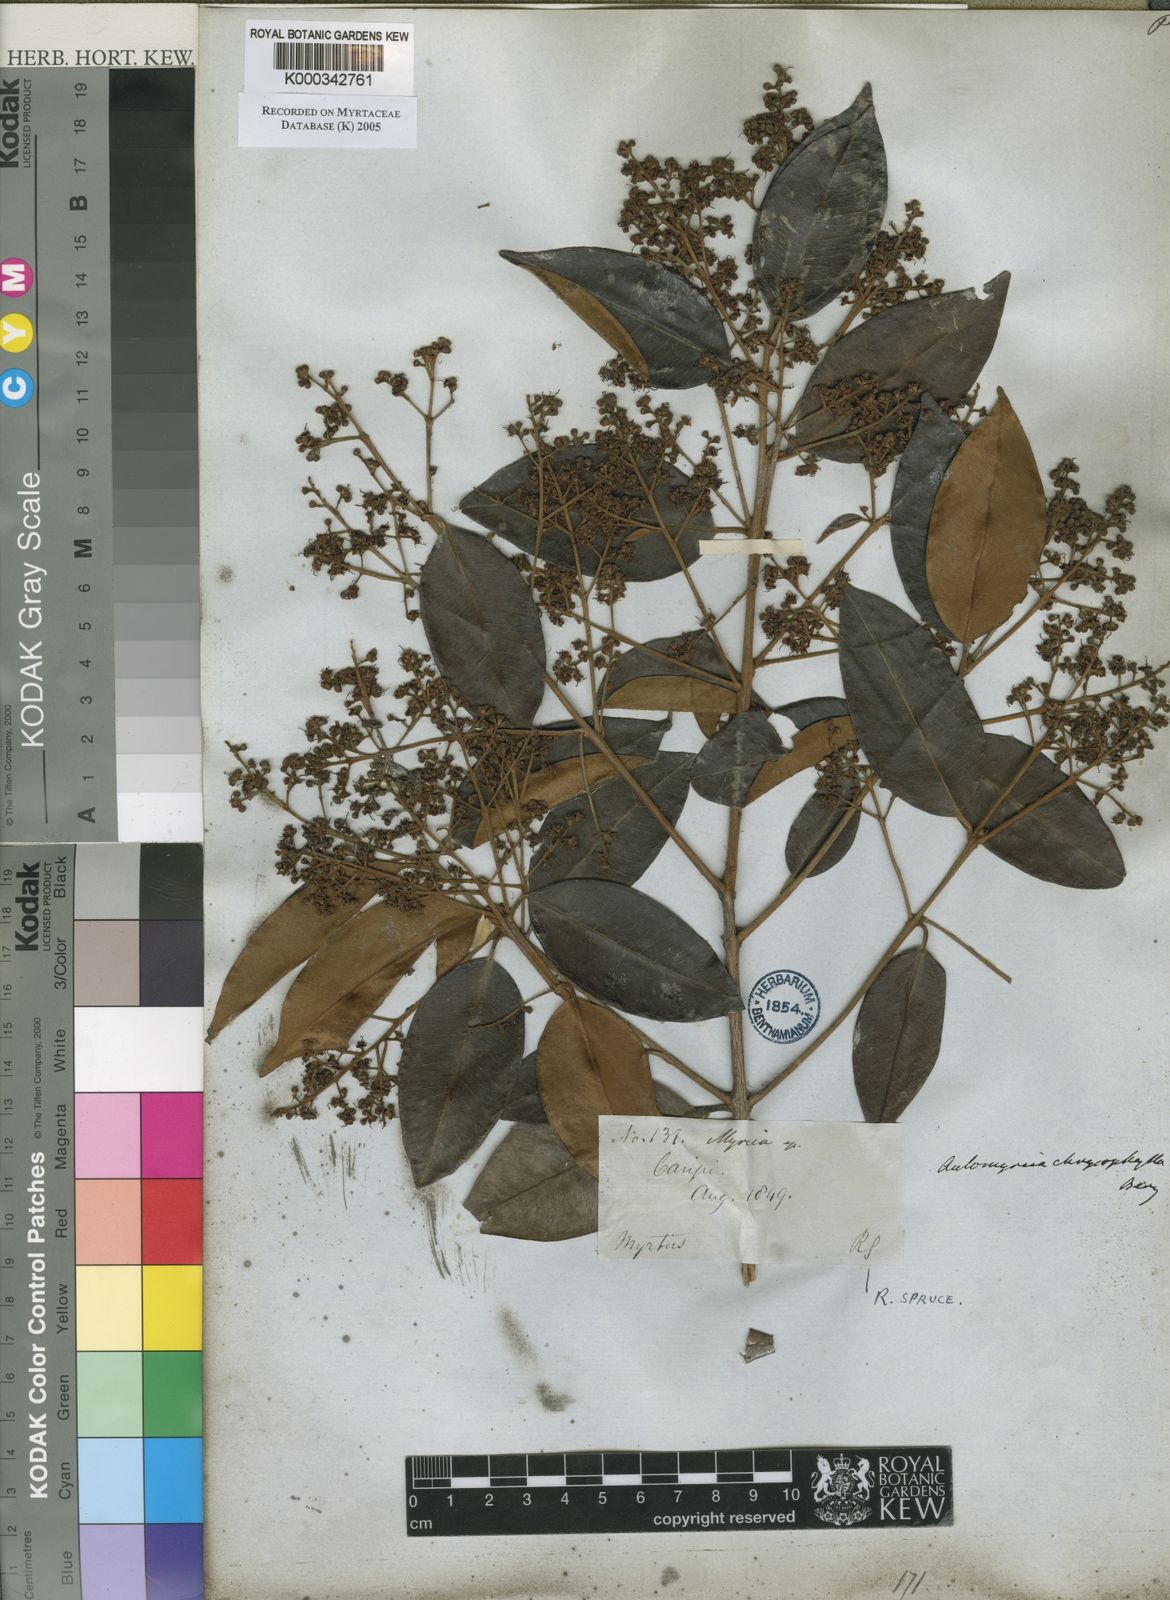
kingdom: Plantae
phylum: Tracheophyta
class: Magnoliopsida
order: Myrtales
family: Myrtaceae
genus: Myrcia
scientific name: Myrcia cuprea
